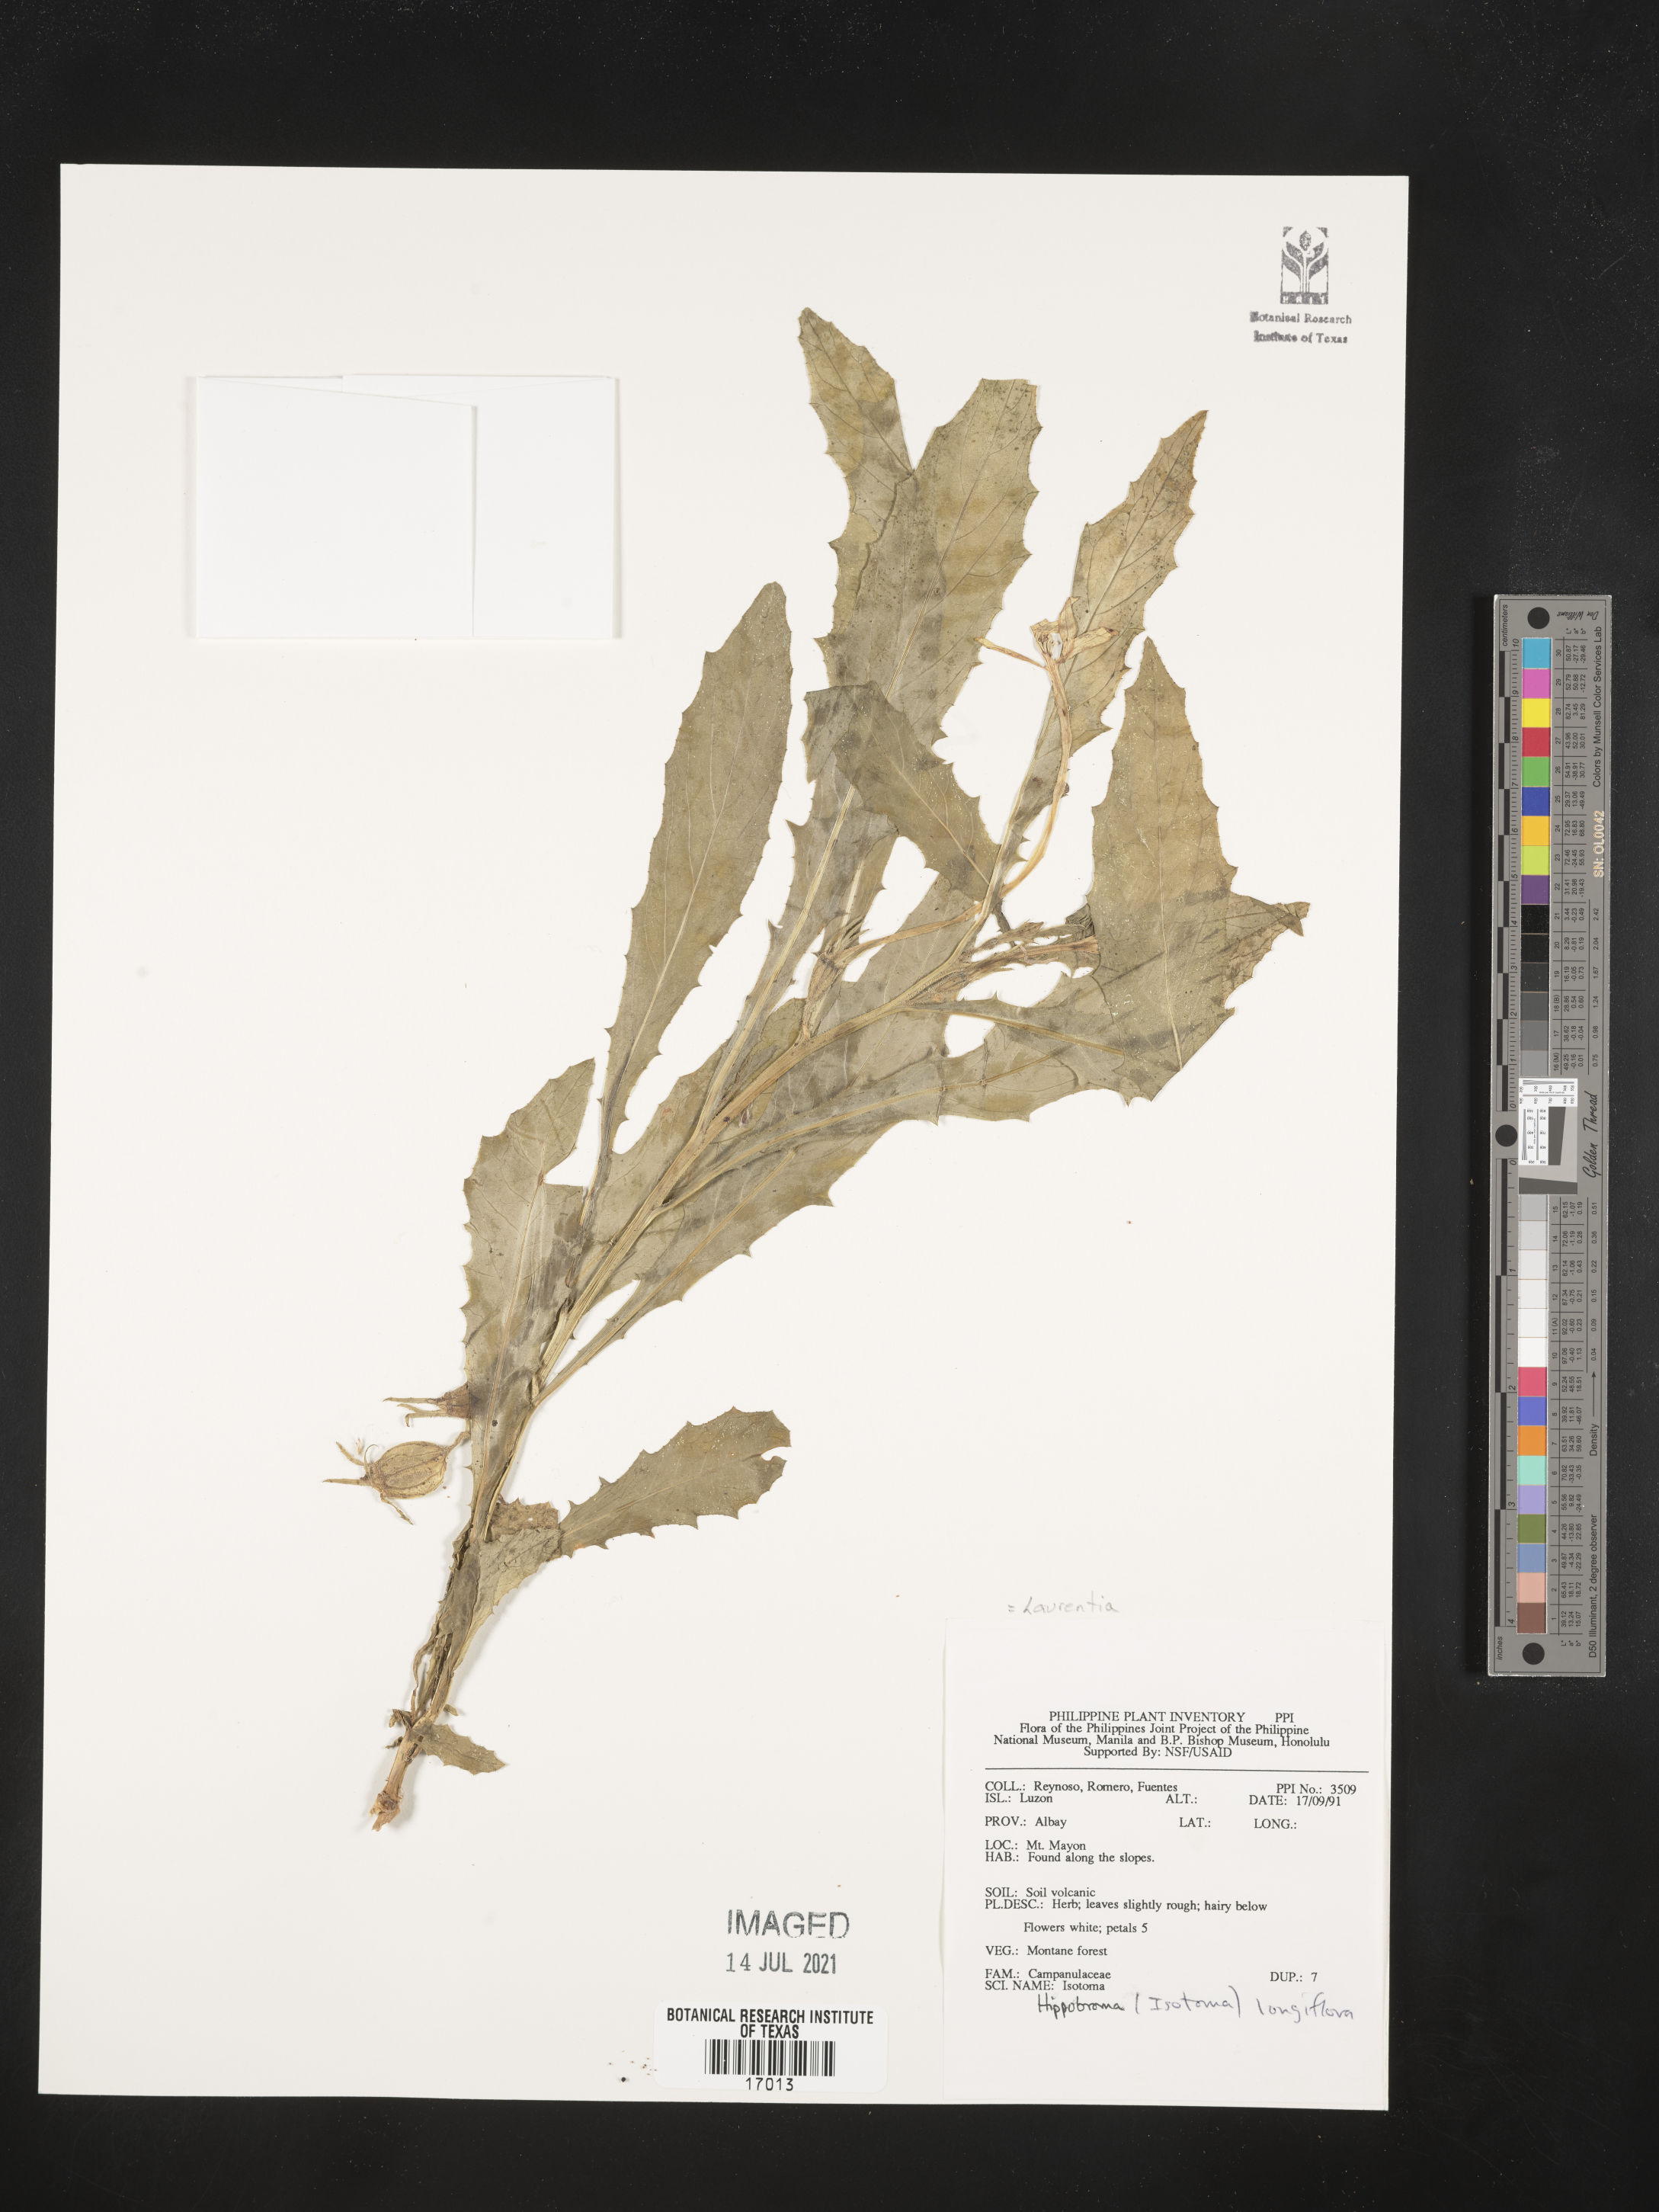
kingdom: Plantae
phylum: Tracheophyta
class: Magnoliopsida
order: Asterales
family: Campanulaceae
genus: Hippobroma
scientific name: Hippobroma longiflora
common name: Madamfate
